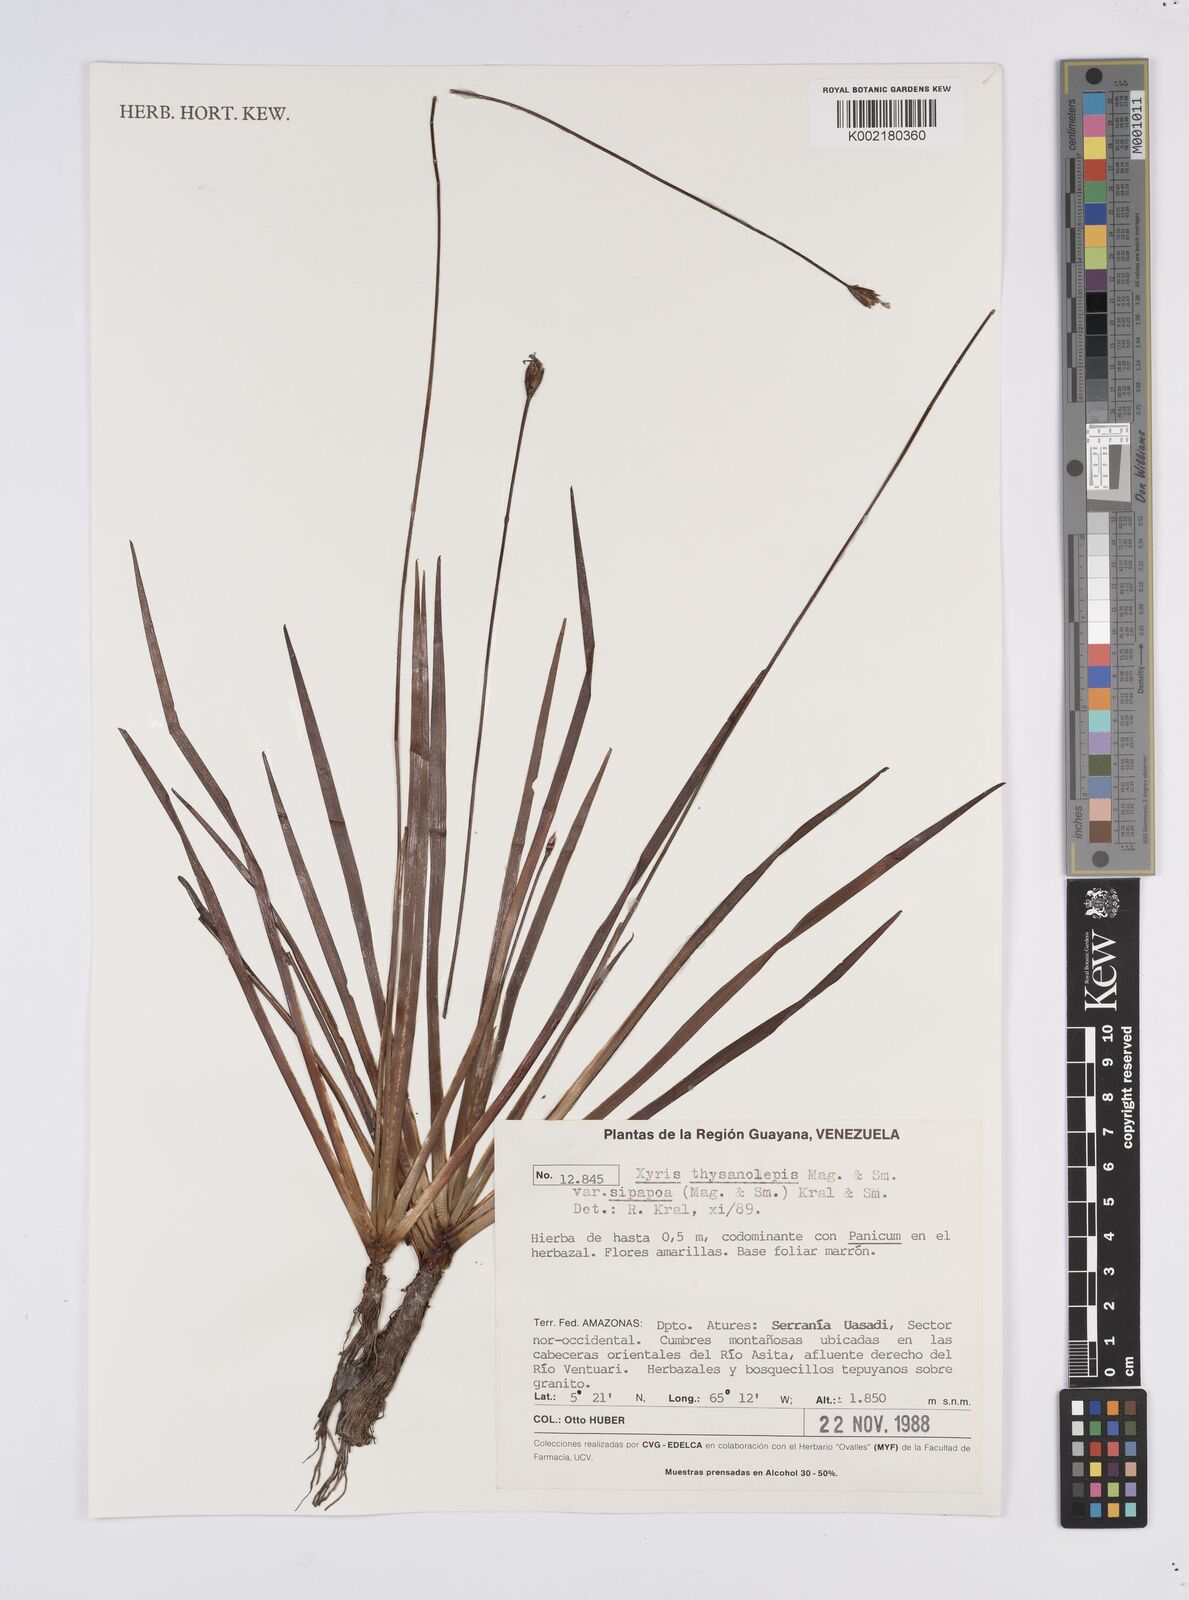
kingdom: Plantae
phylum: Tracheophyta
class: Liliopsida
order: Poales
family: Xyridaceae
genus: Xyris
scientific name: Xyris thysanolepis
